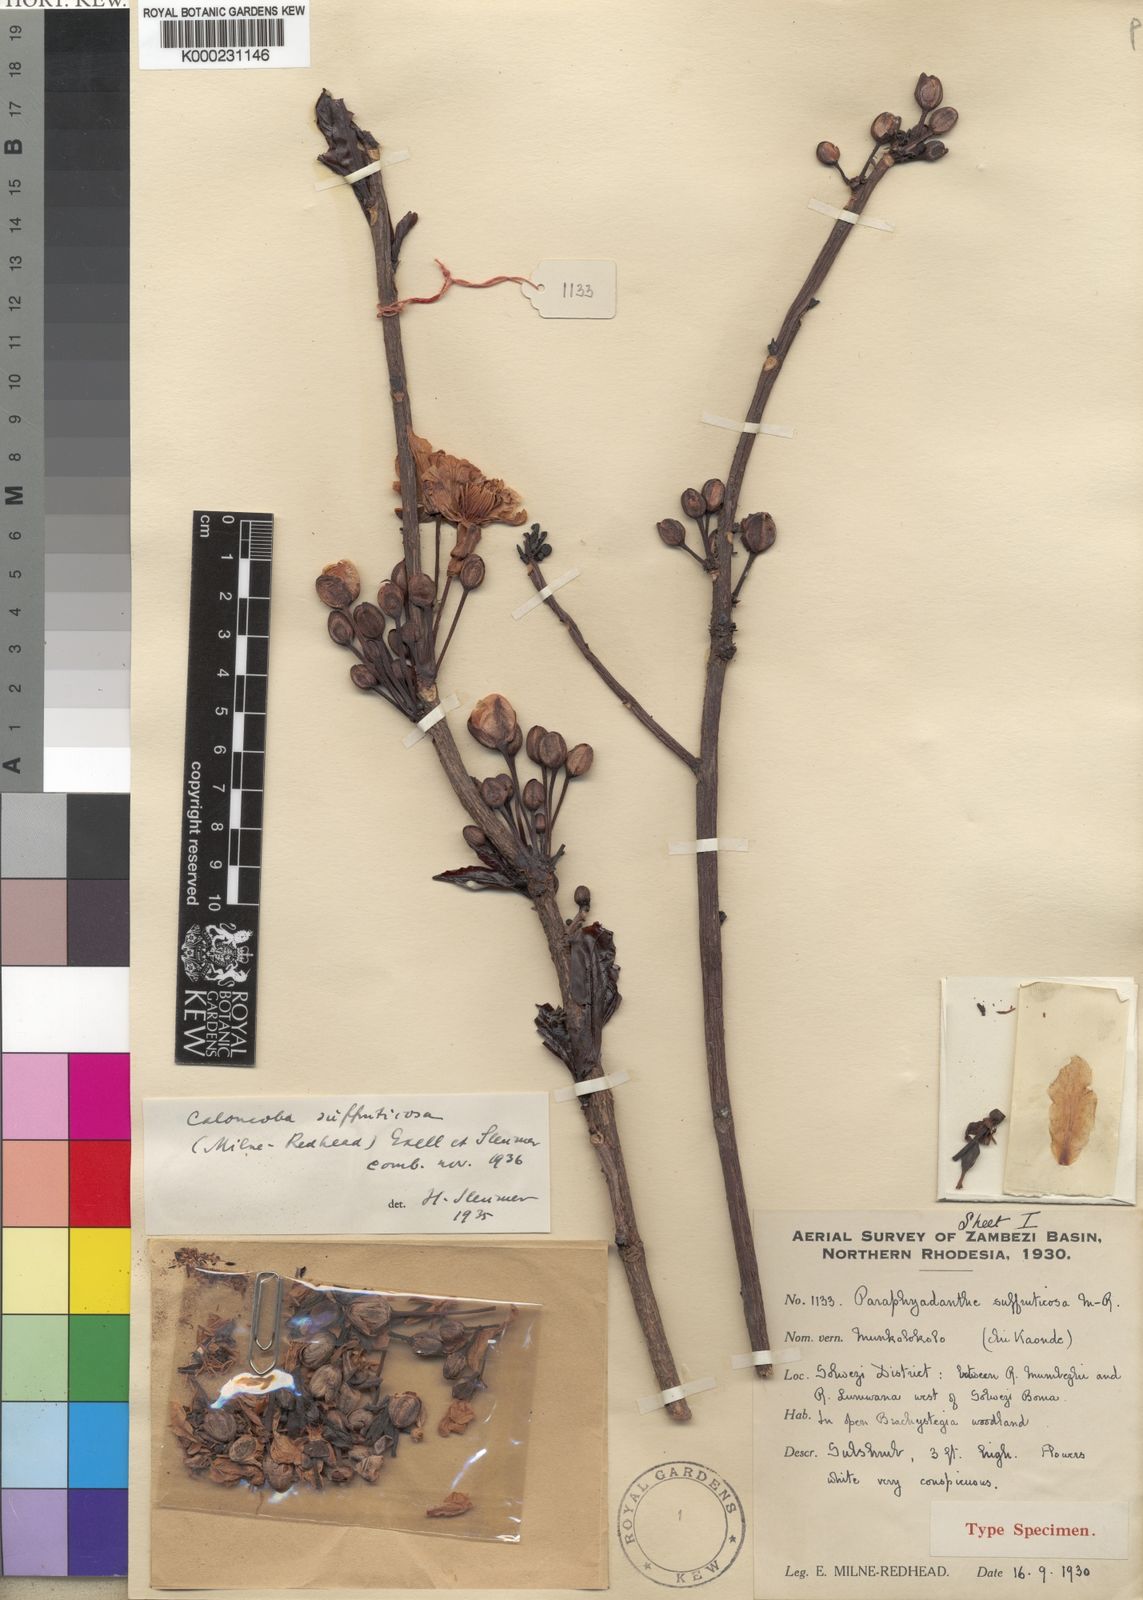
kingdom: Plantae
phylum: Tracheophyta
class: Magnoliopsida
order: Malpighiales
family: Achariaceae
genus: Caloncoba
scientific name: Caloncoba suffruticosa
